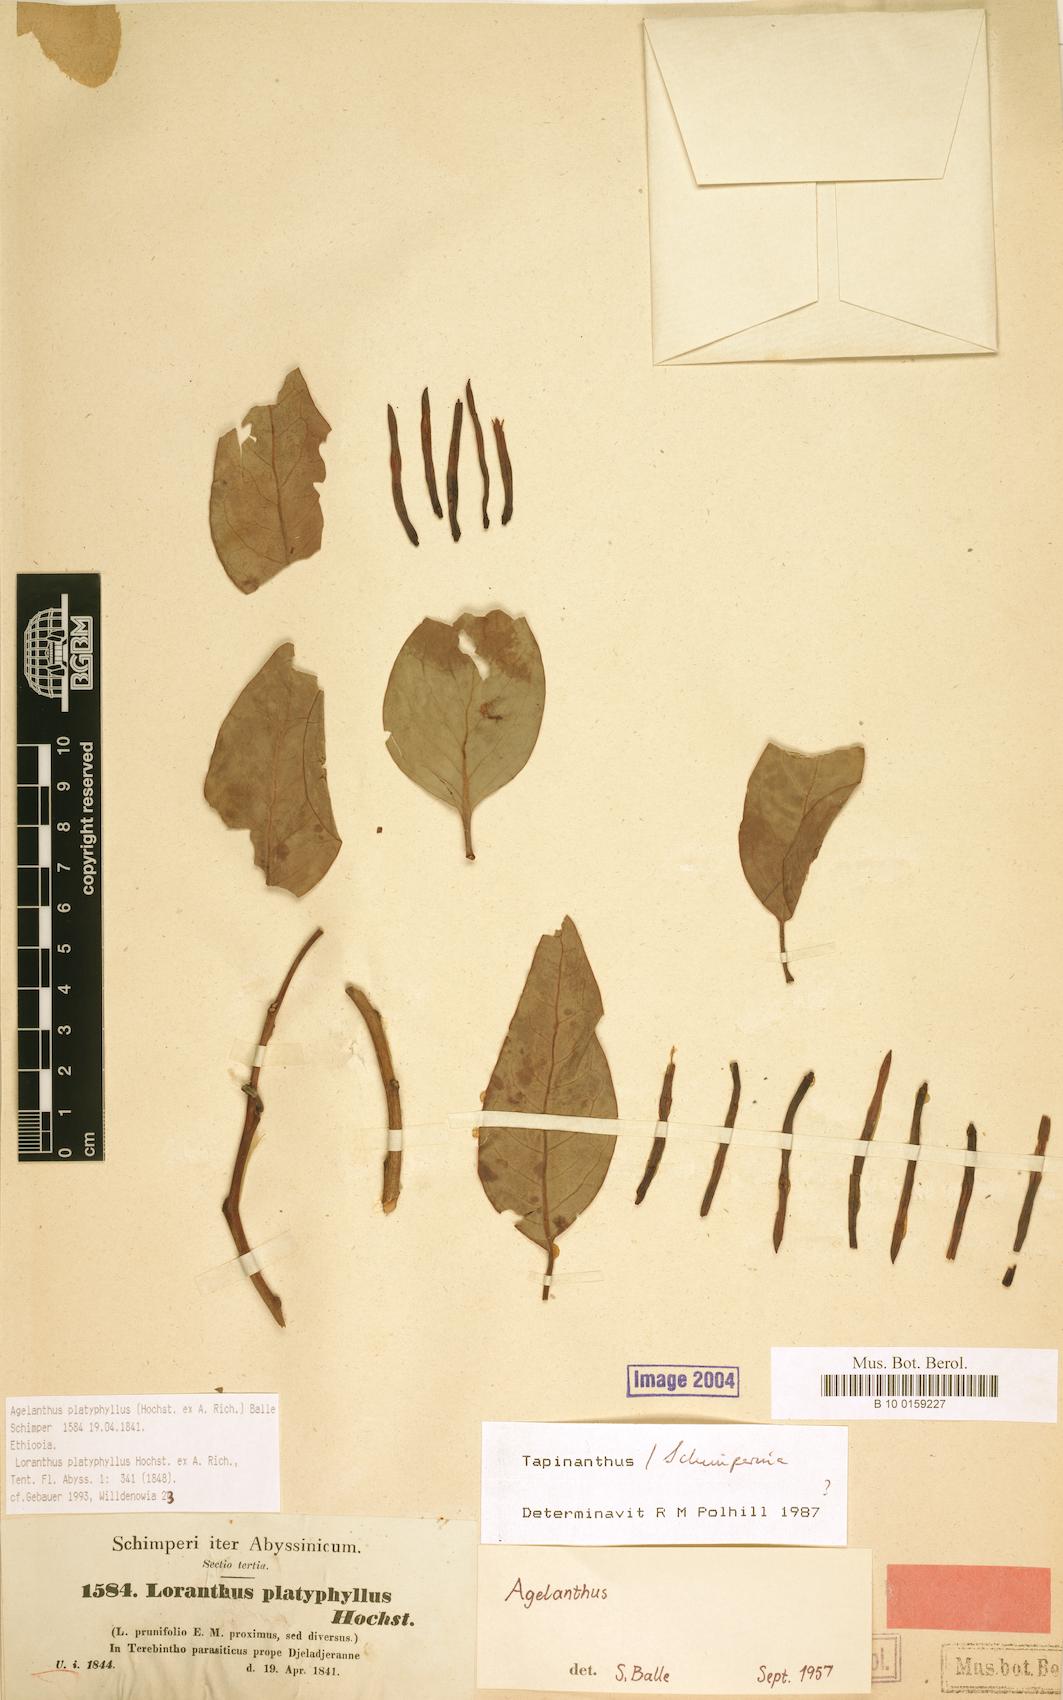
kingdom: Plantae
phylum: Tracheophyta
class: Magnoliopsida
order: Santalales
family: Loranthaceae
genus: Agelanthus
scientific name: Agelanthus platyphyllus
